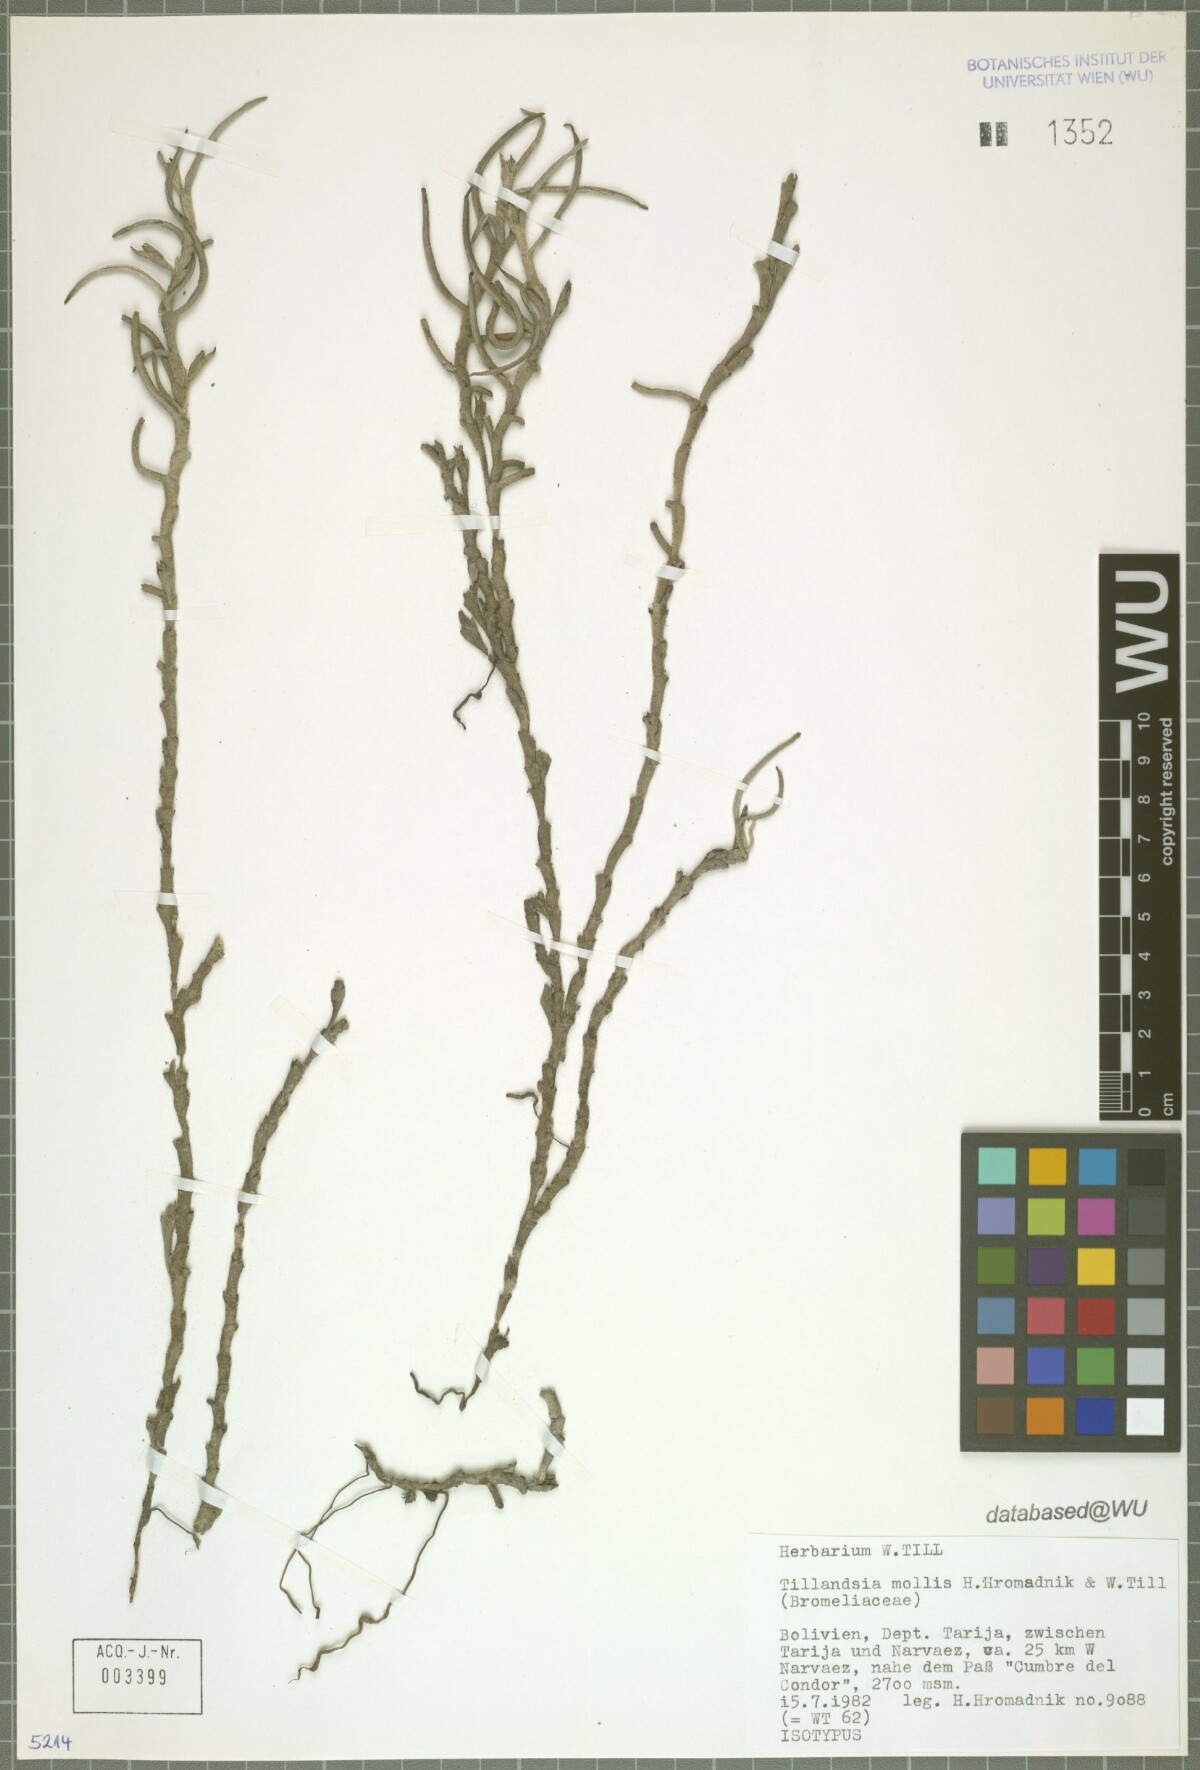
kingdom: Plantae
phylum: Tracheophyta
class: Liliopsida
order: Poales
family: Bromeliaceae
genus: Tillandsia
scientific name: Tillandsia mollis
